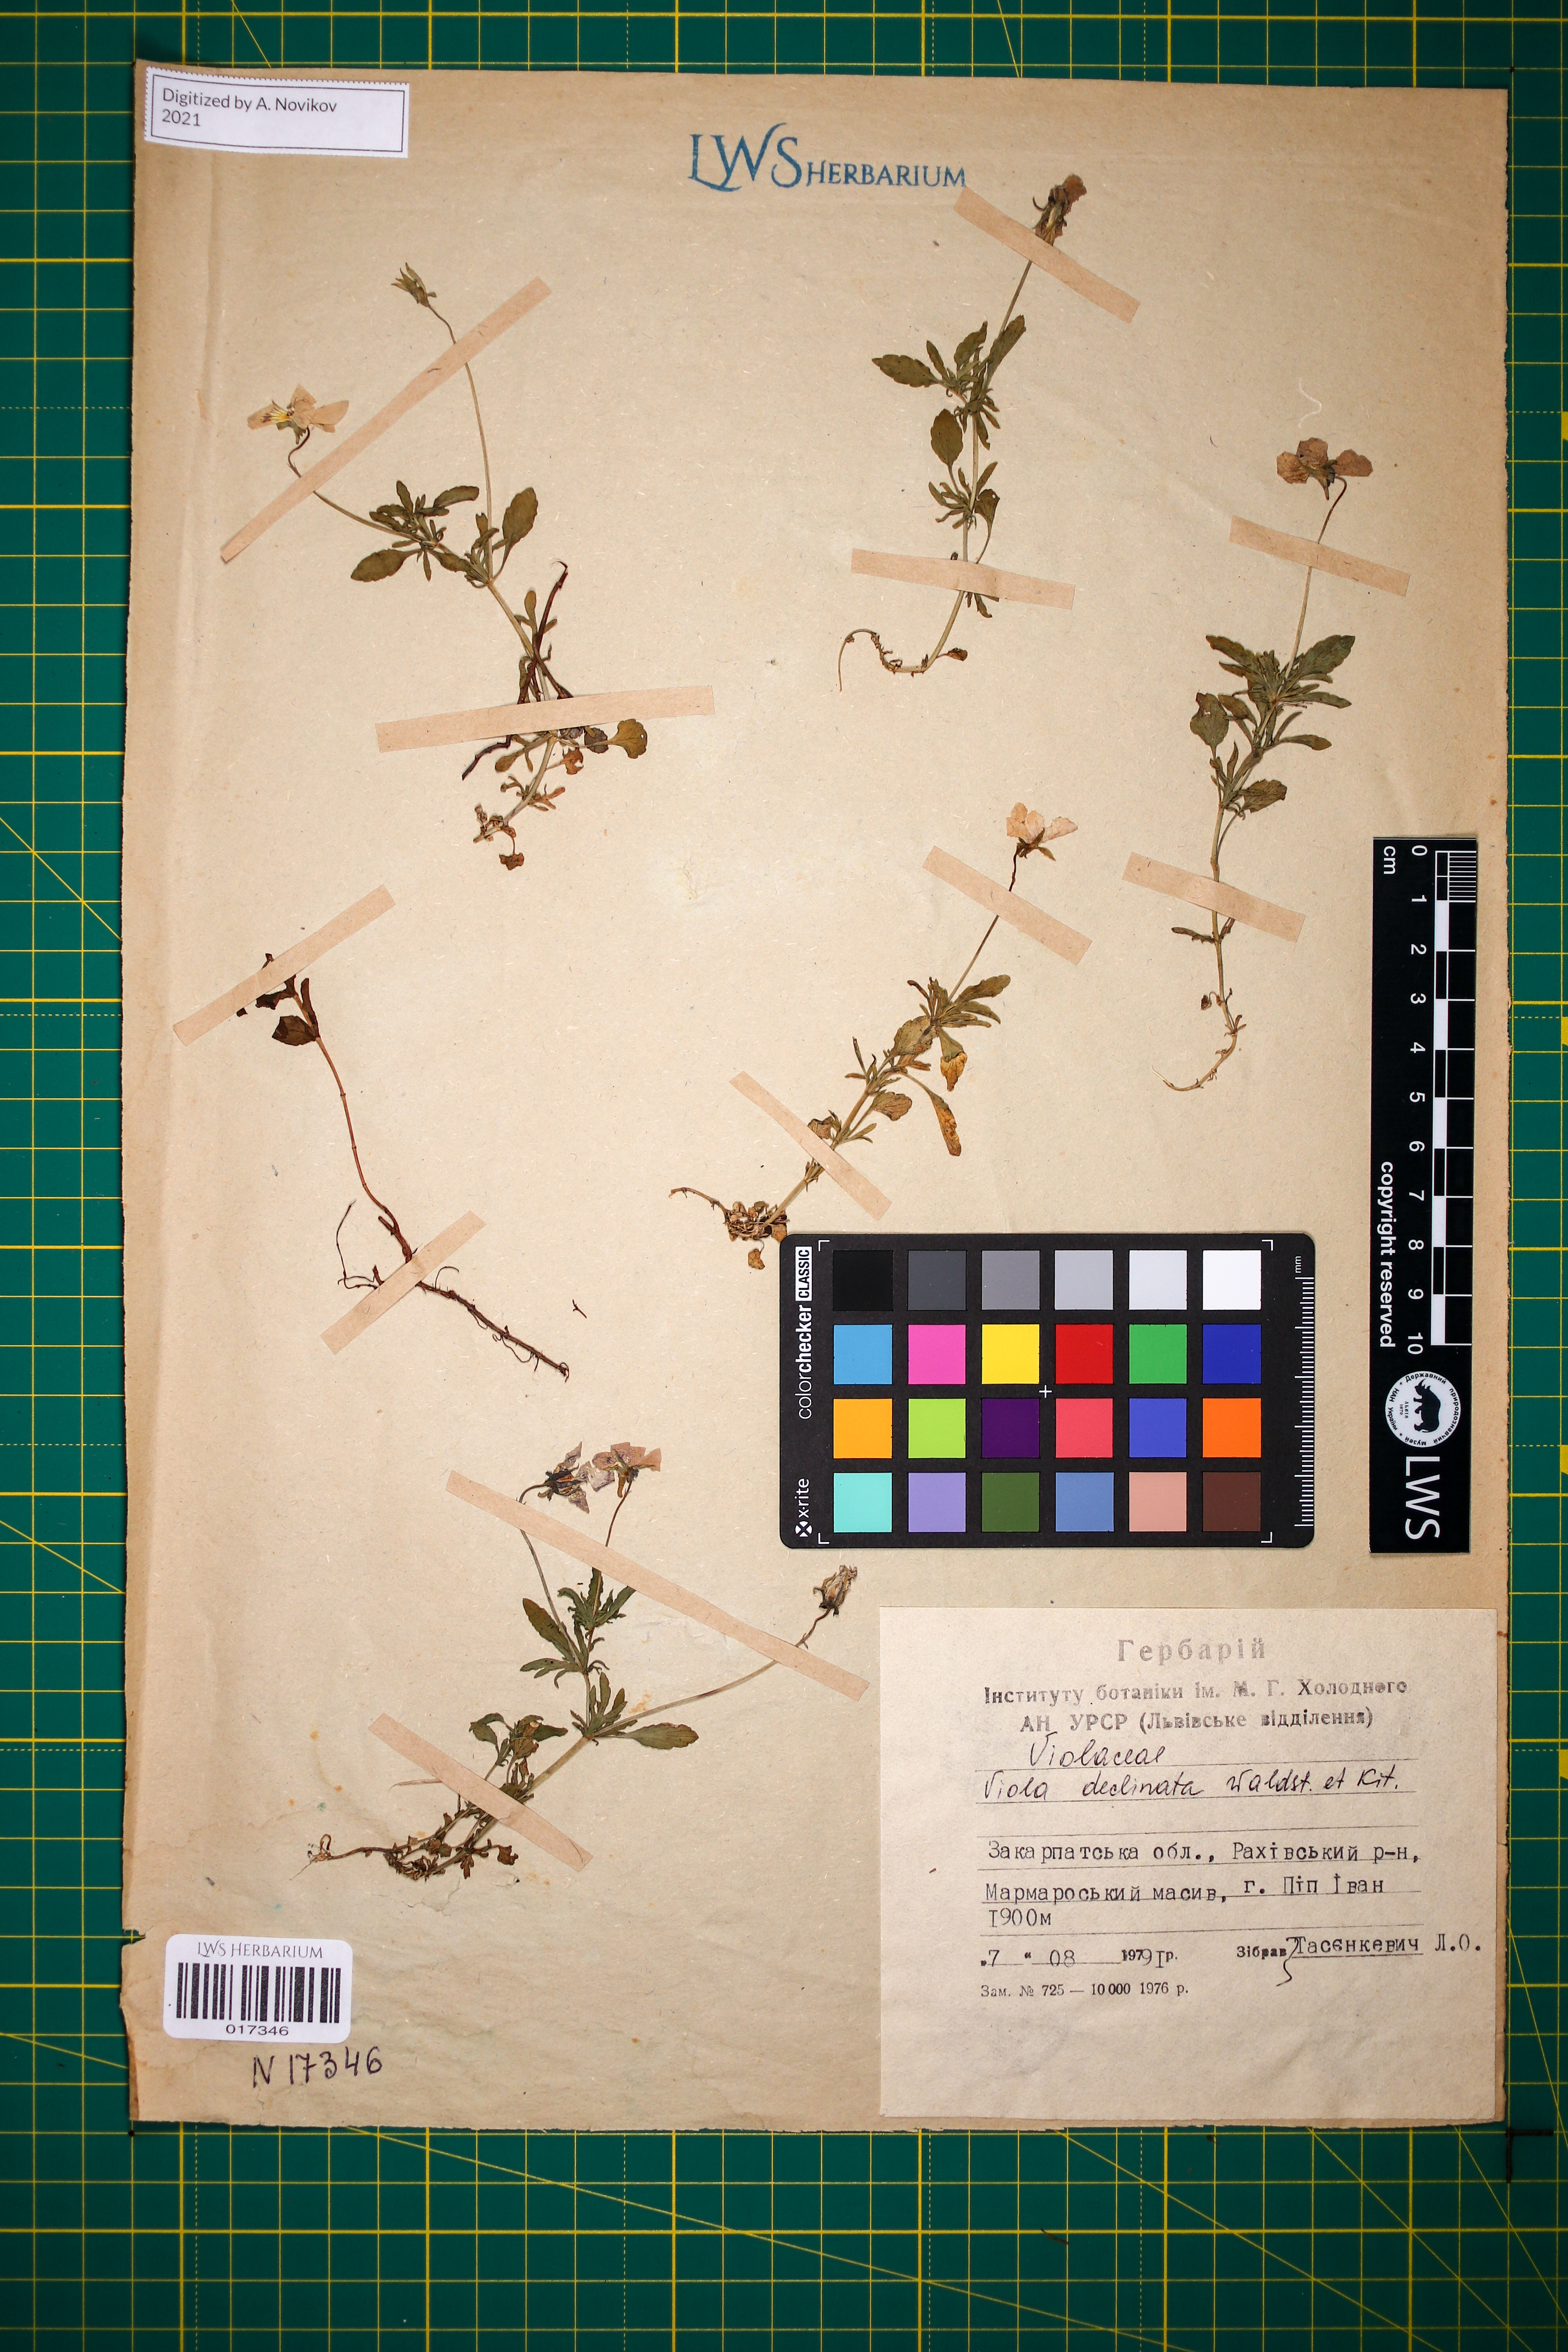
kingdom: Plantae
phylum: Tracheophyta
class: Magnoliopsida
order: Malpighiales
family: Violaceae
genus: Viola
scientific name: Viola declinata
